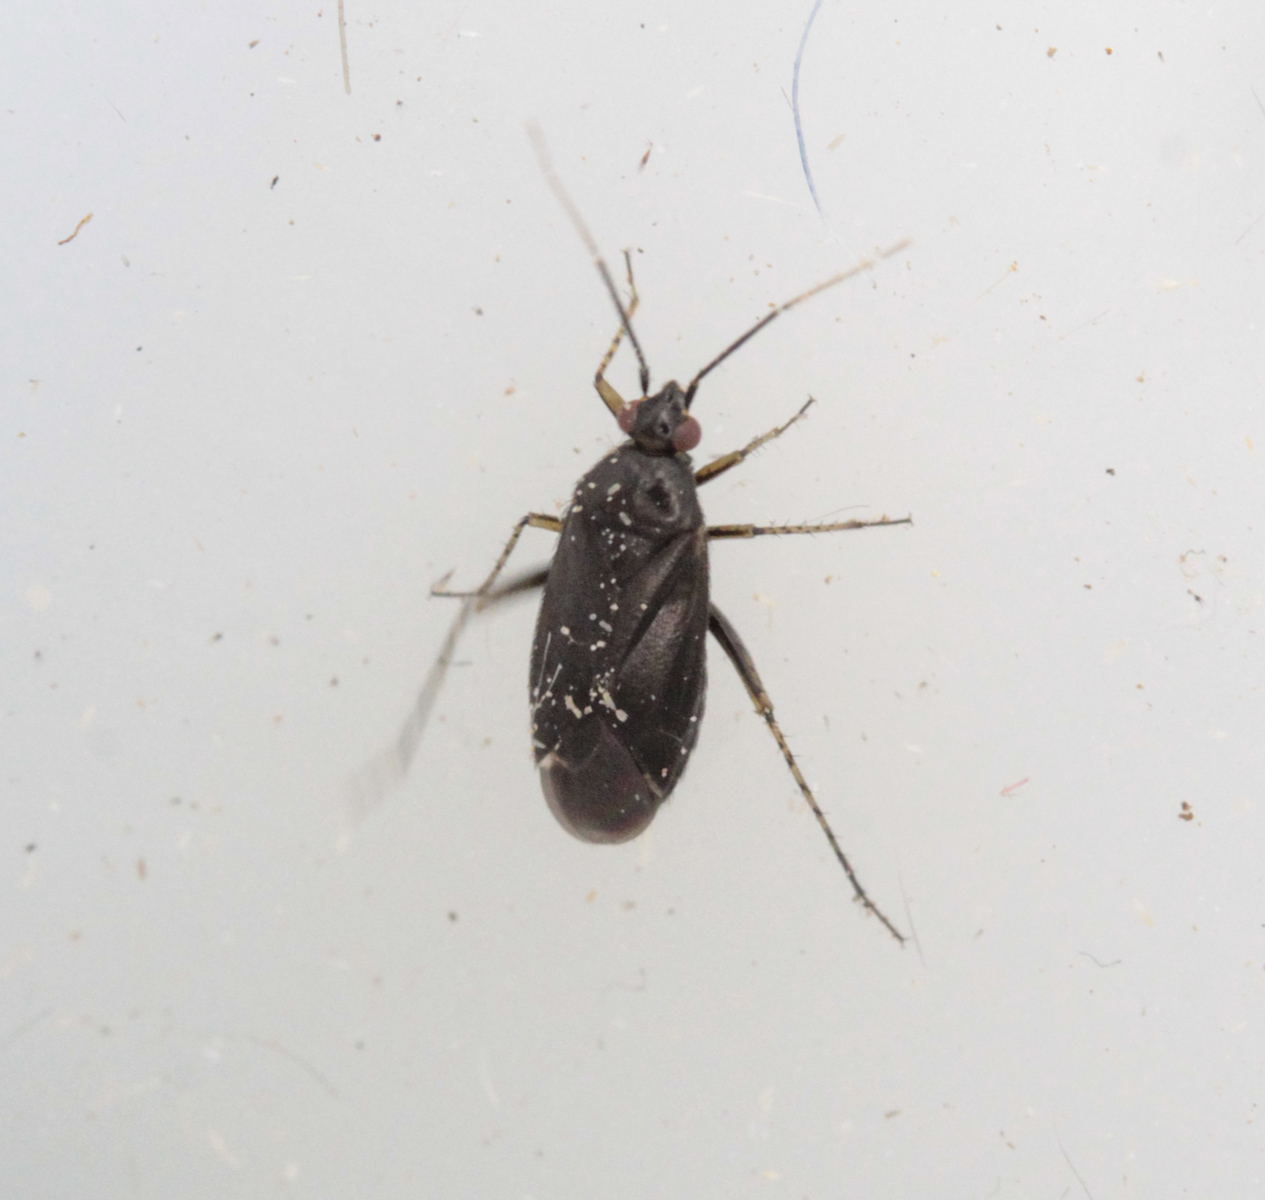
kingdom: Animalia
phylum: Arthropoda
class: Insecta
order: Hemiptera
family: Miridae
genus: Plagiognathus
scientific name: Plagiognathus arbustorum
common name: Plant bug
